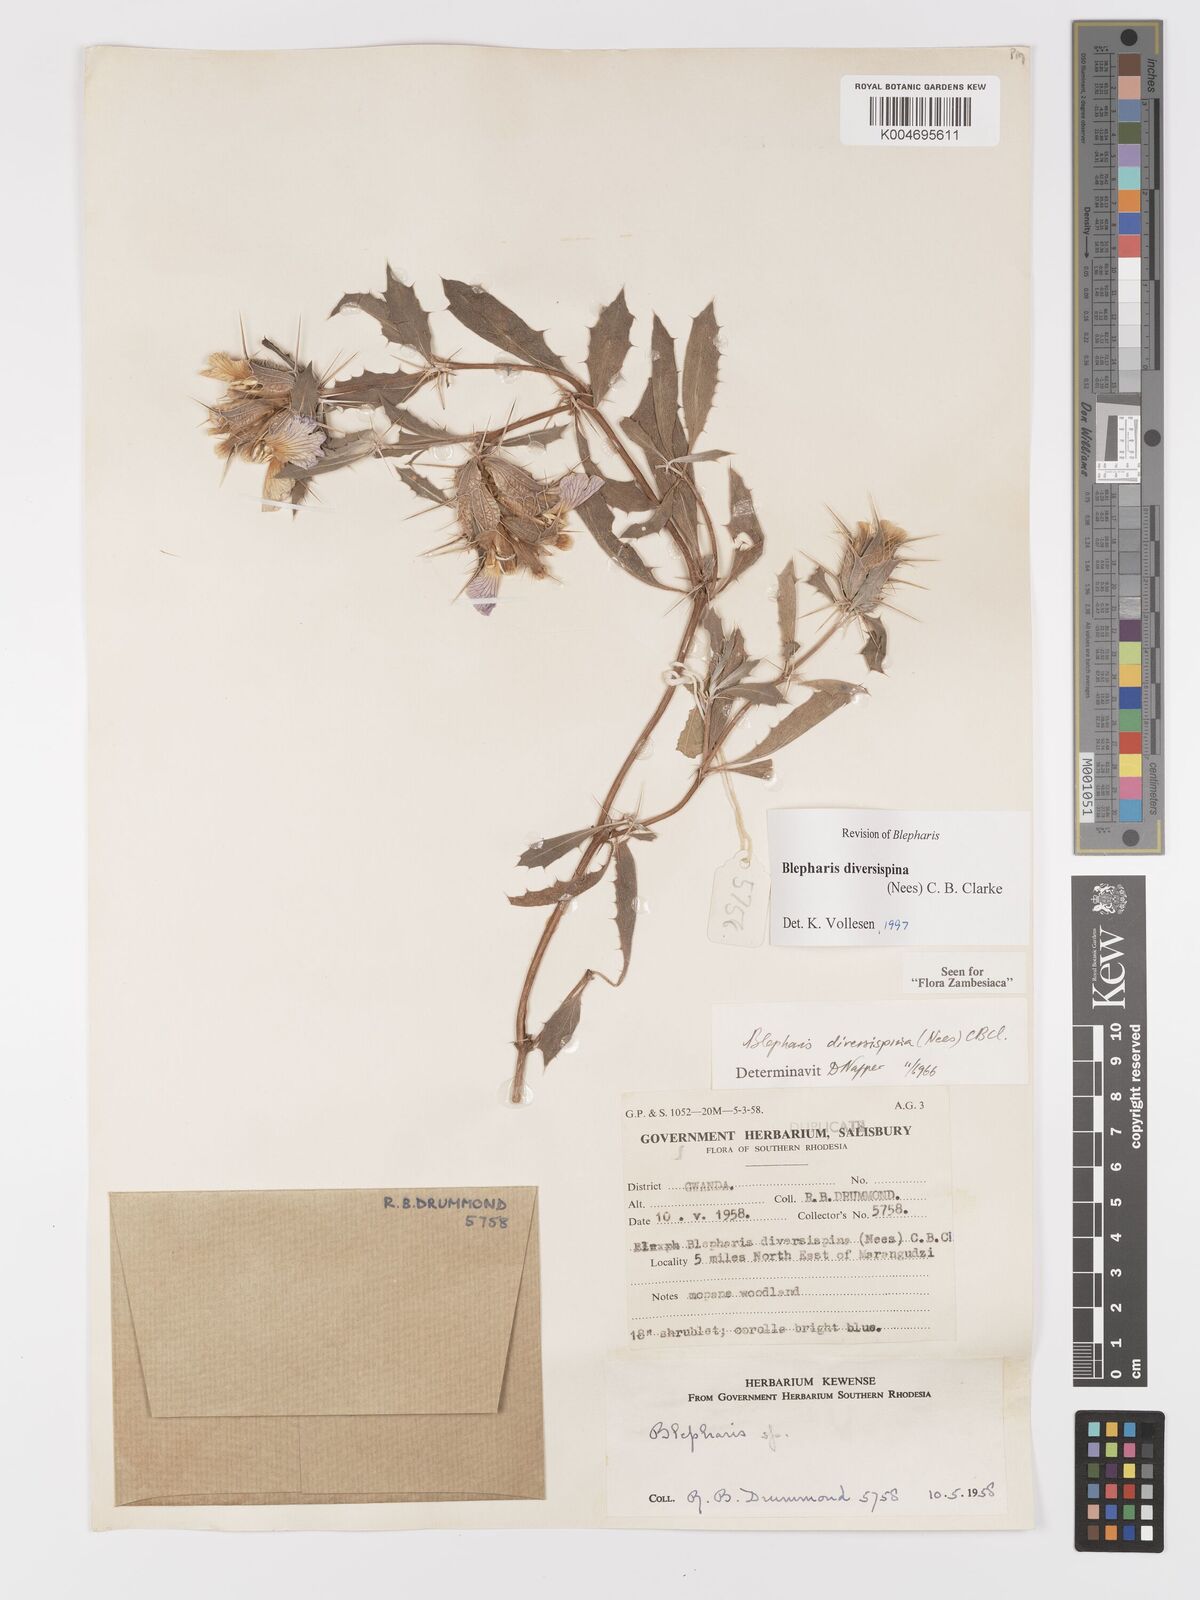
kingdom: Plantae
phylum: Tracheophyta
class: Magnoliopsida
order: Lamiales
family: Acanthaceae
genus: Blepharis
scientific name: Blepharis diversispina
